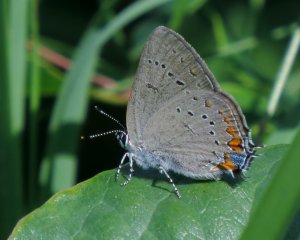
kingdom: Animalia
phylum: Arthropoda
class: Insecta
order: Lepidoptera
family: Lycaenidae
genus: Strymon
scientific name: Strymon acadica
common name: Acadian Hairstreak
